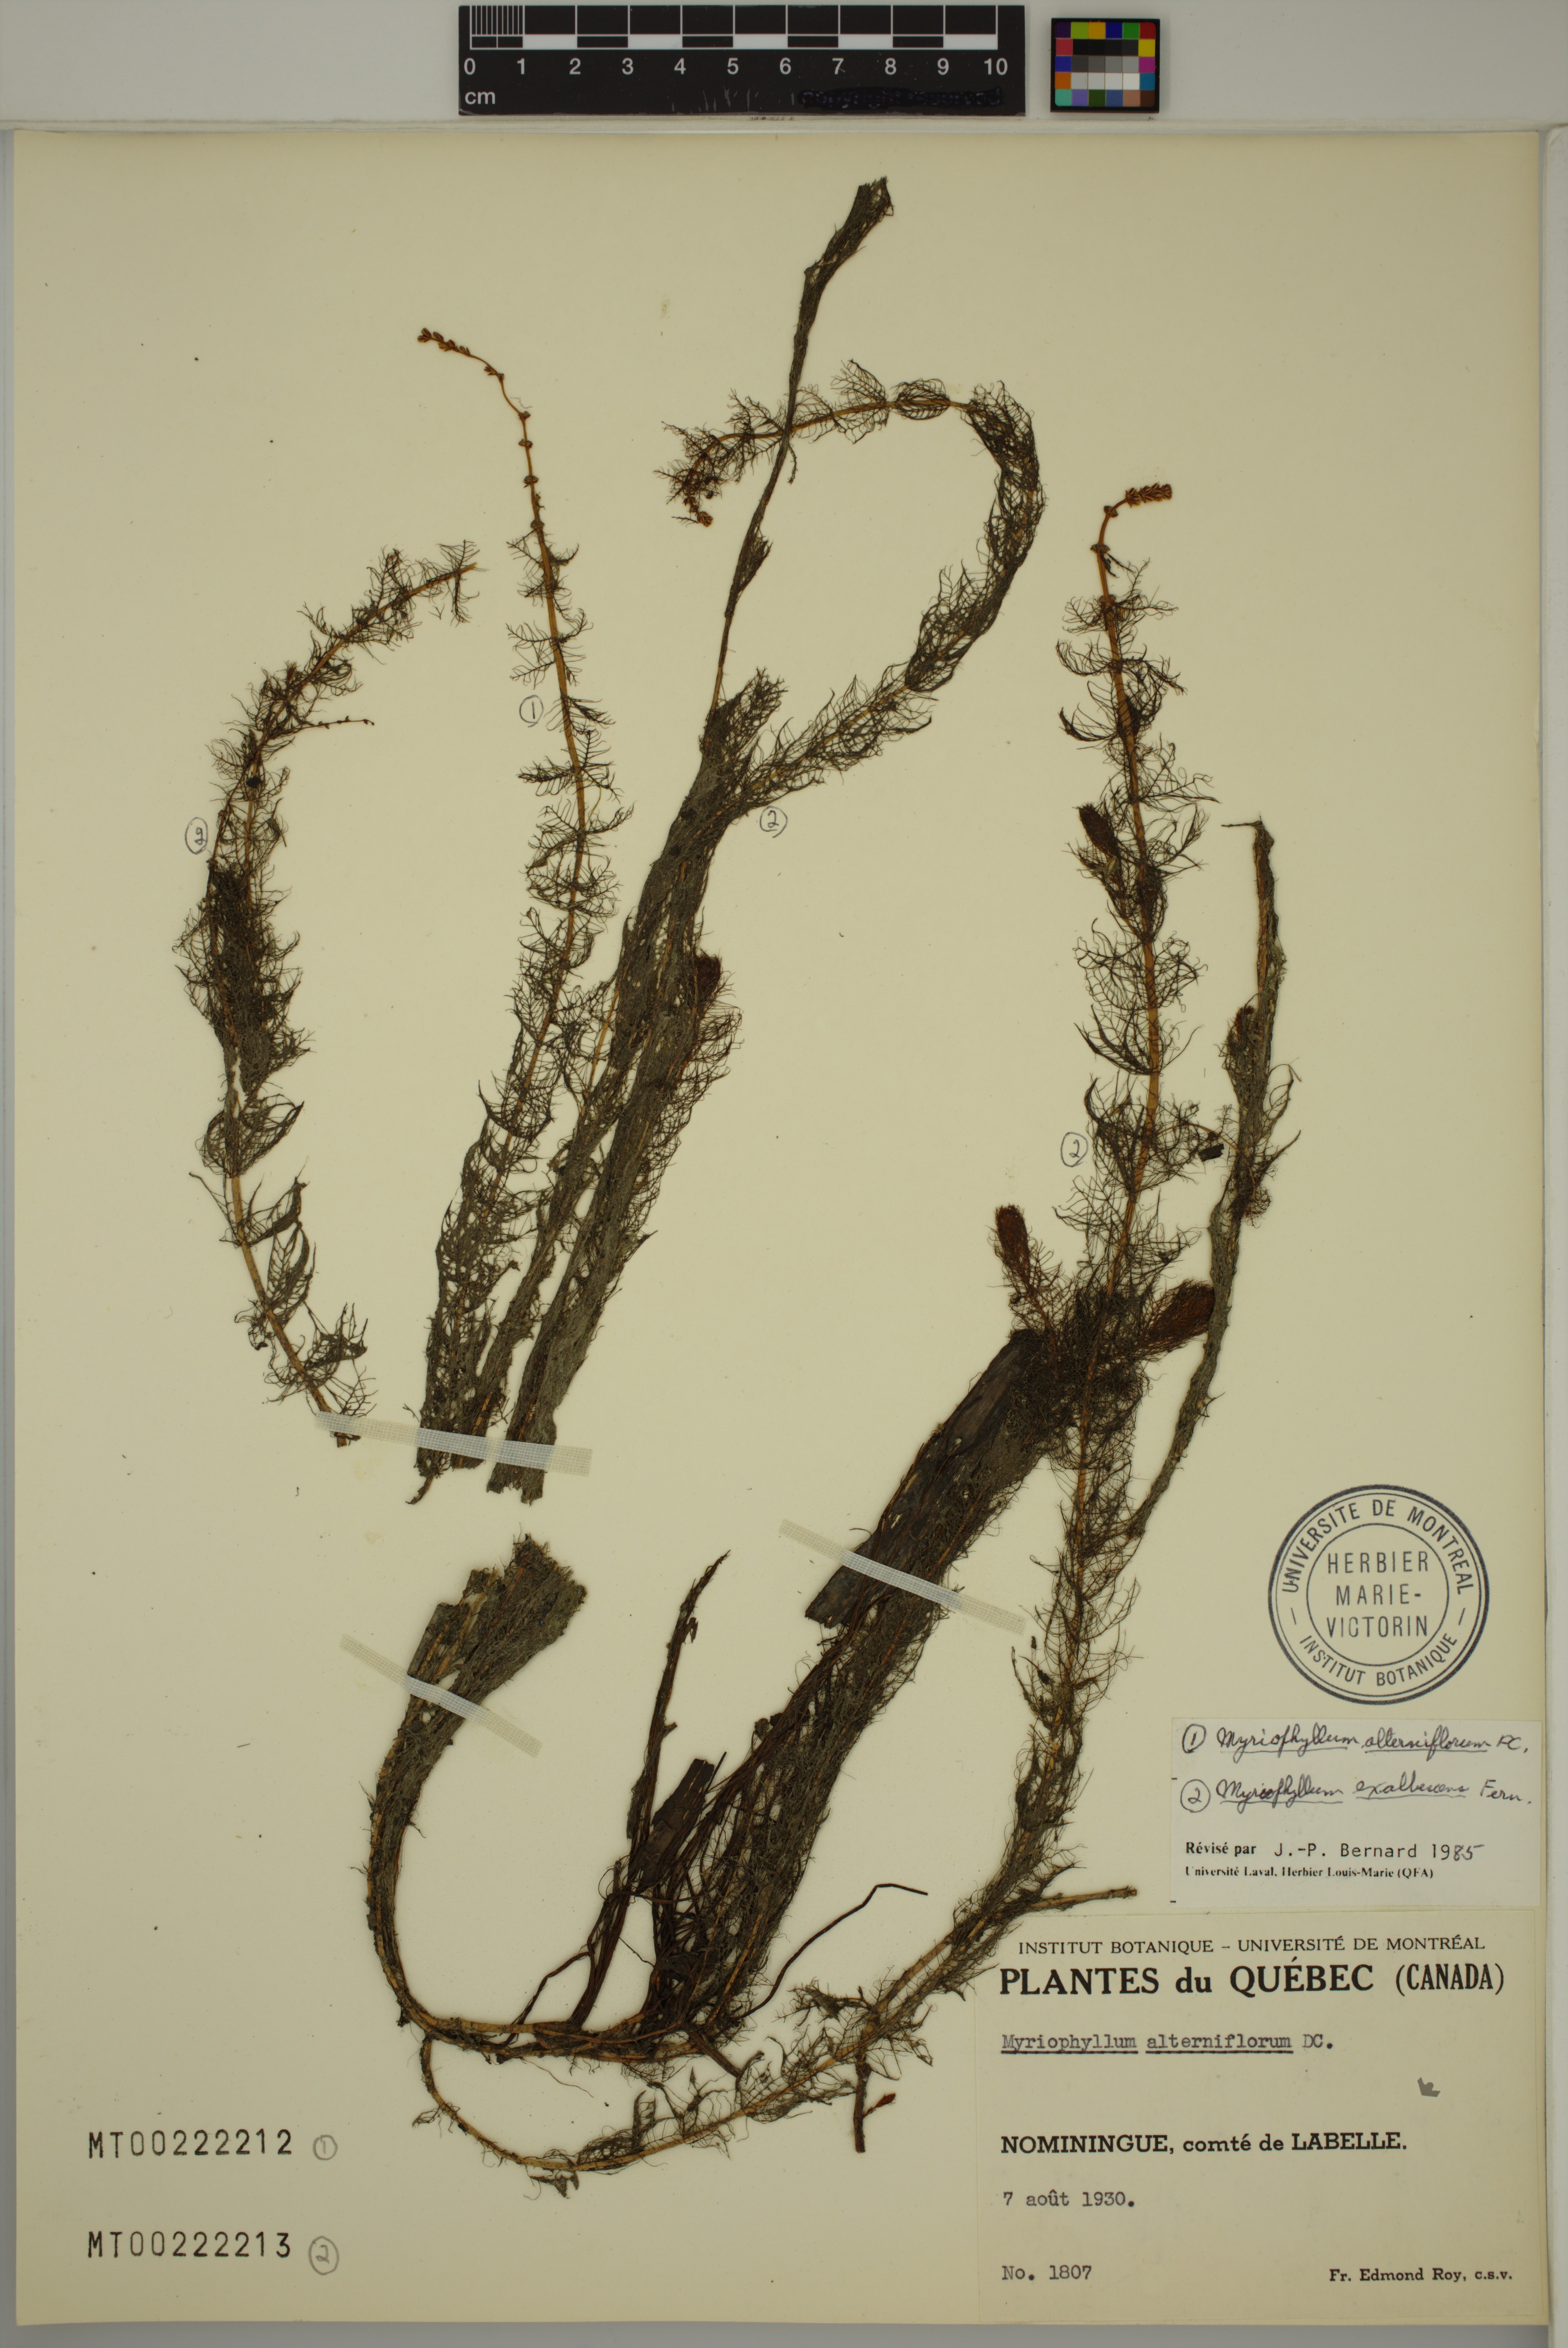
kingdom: Plantae
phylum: Tracheophyta
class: Magnoliopsida
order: Saxifragales
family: Haloragaceae
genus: Myriophyllum
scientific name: Myriophyllum alterniflorum
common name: Alternate water-milfoil
